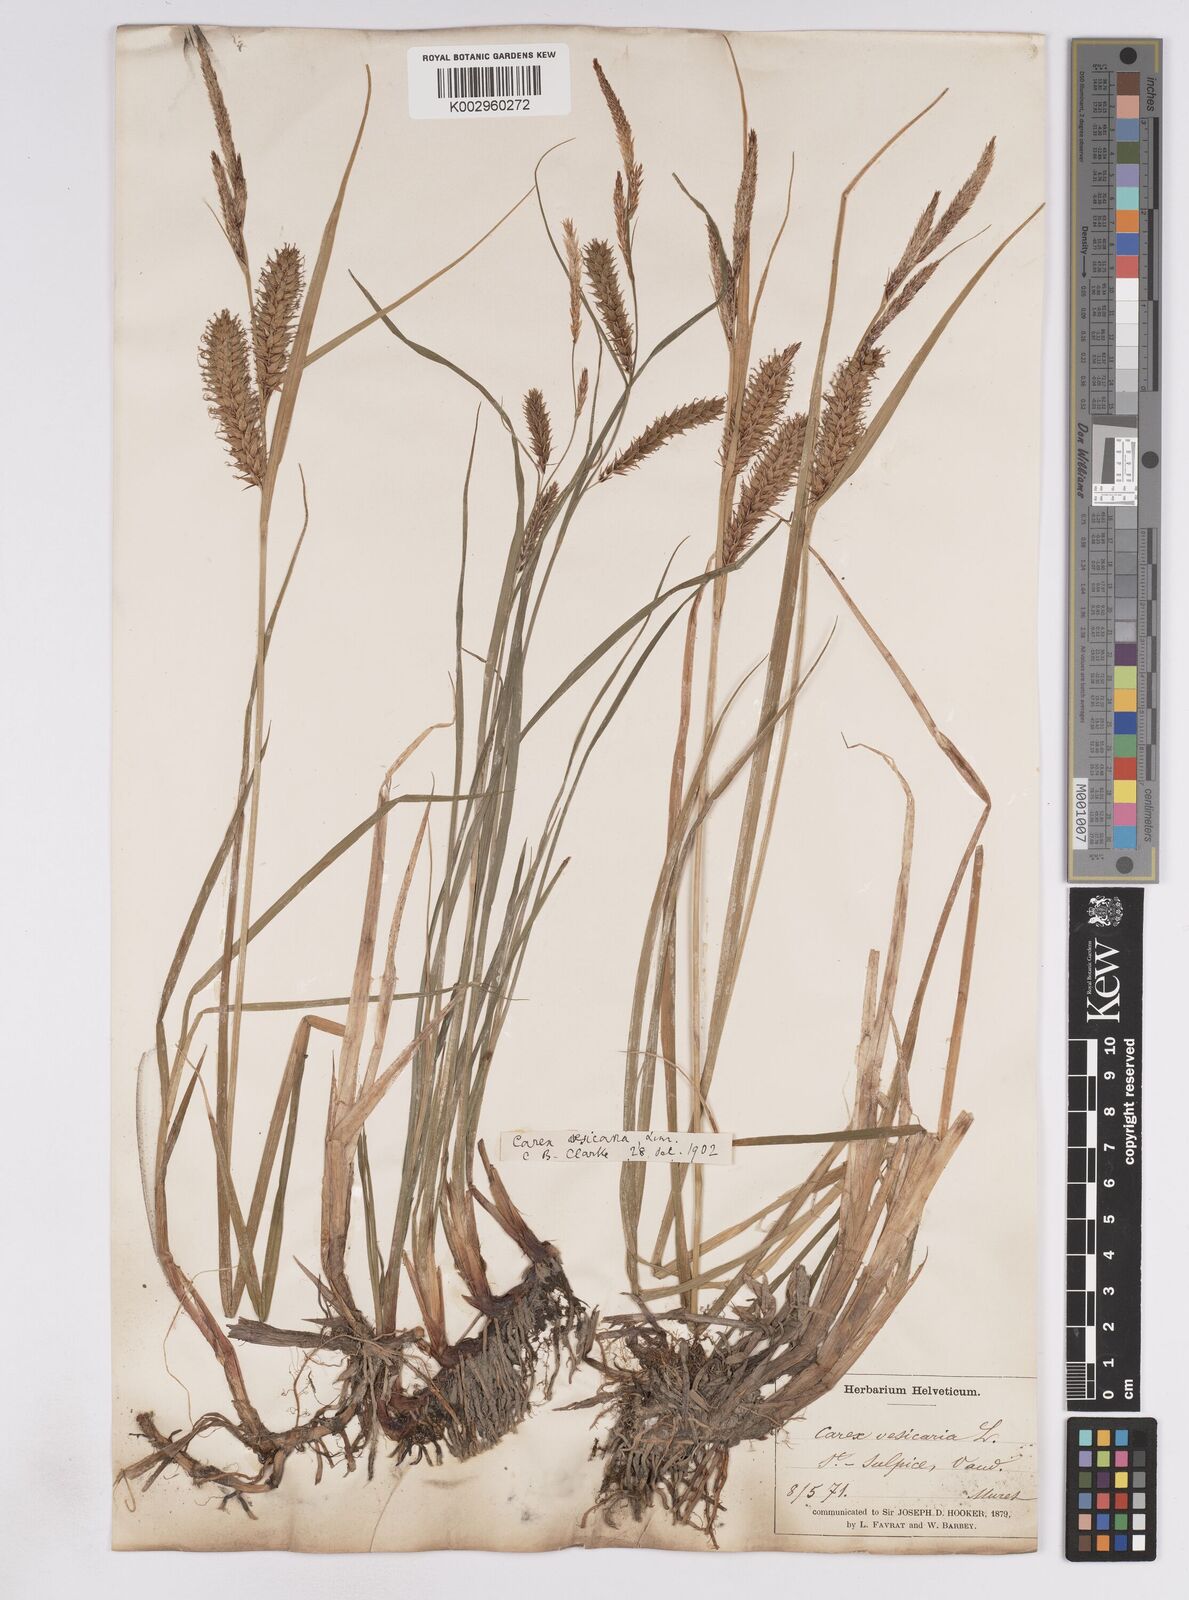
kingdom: Plantae
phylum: Tracheophyta
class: Liliopsida
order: Poales
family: Cyperaceae
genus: Carex
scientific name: Carex vesicaria
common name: Bladder-sedge
